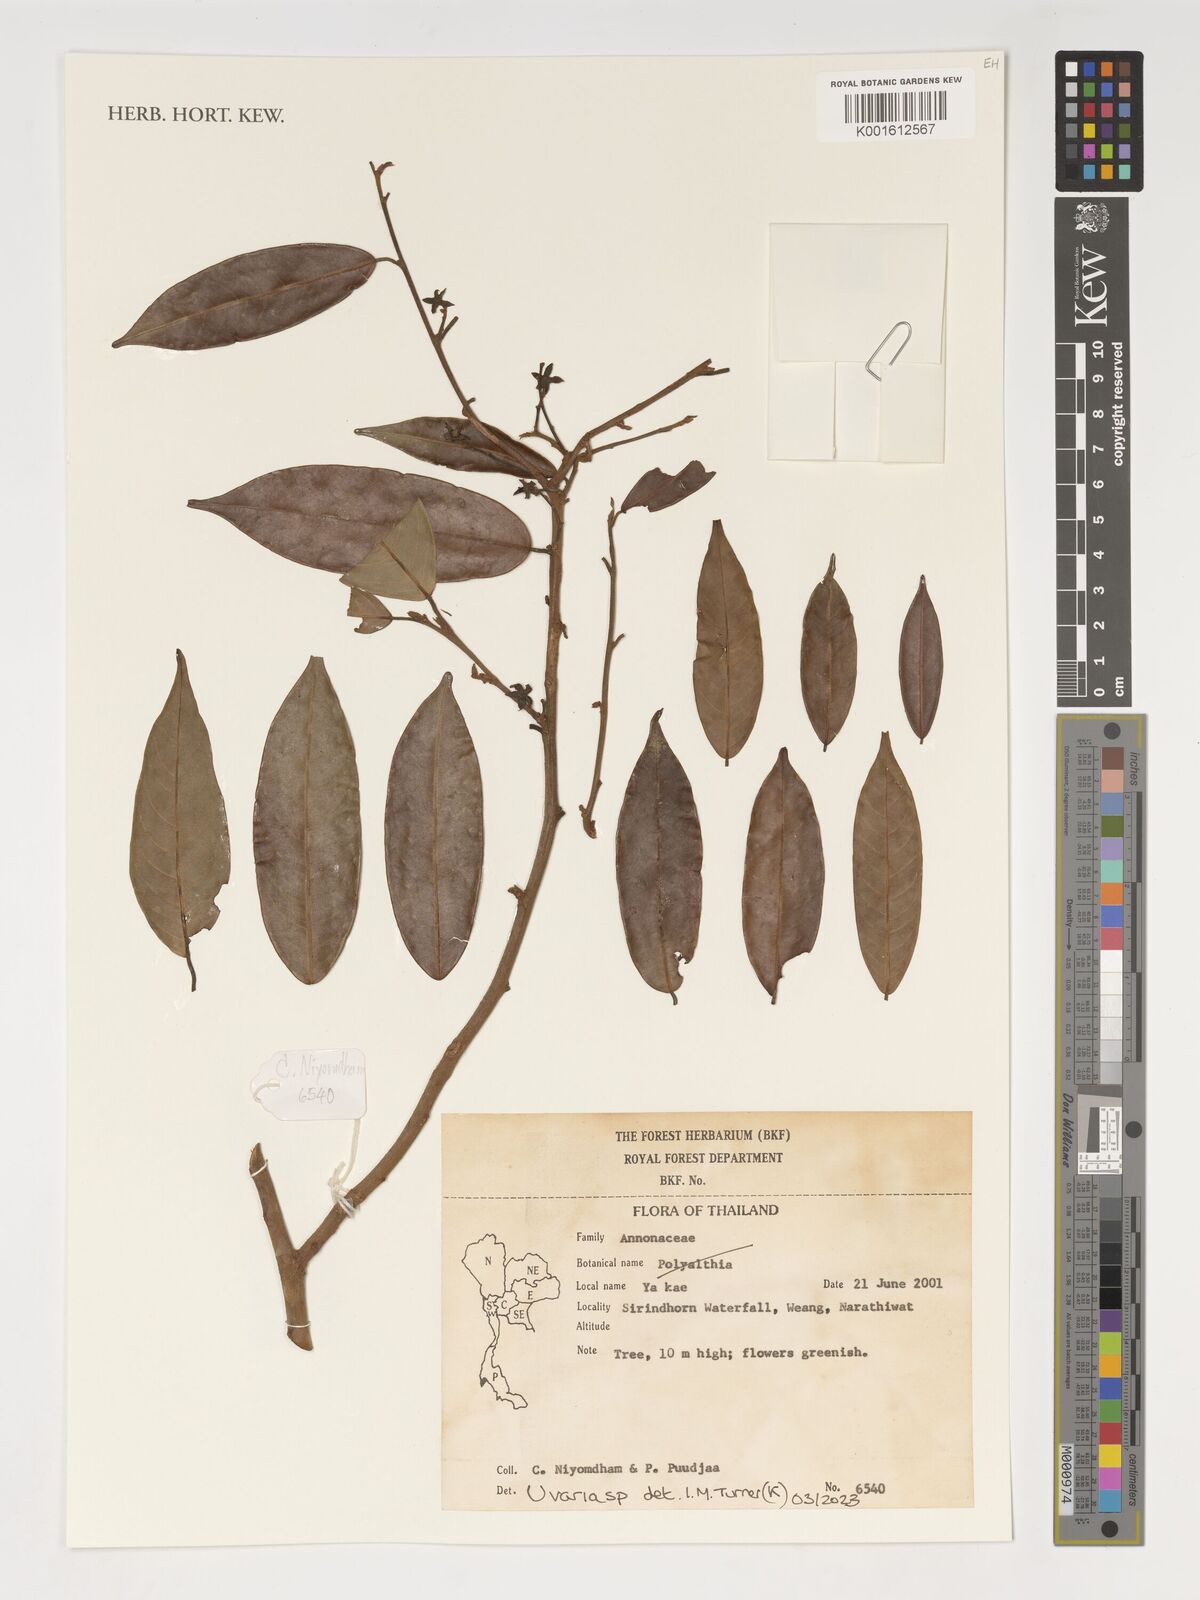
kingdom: Plantae
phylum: Tracheophyta
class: Magnoliopsida
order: Magnoliales
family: Annonaceae
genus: Uvaria
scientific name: Uvaria
